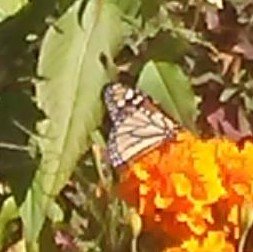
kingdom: Animalia
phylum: Arthropoda
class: Insecta
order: Lepidoptera
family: Nymphalidae
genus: Danaus
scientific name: Danaus plexippus
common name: Monarch
